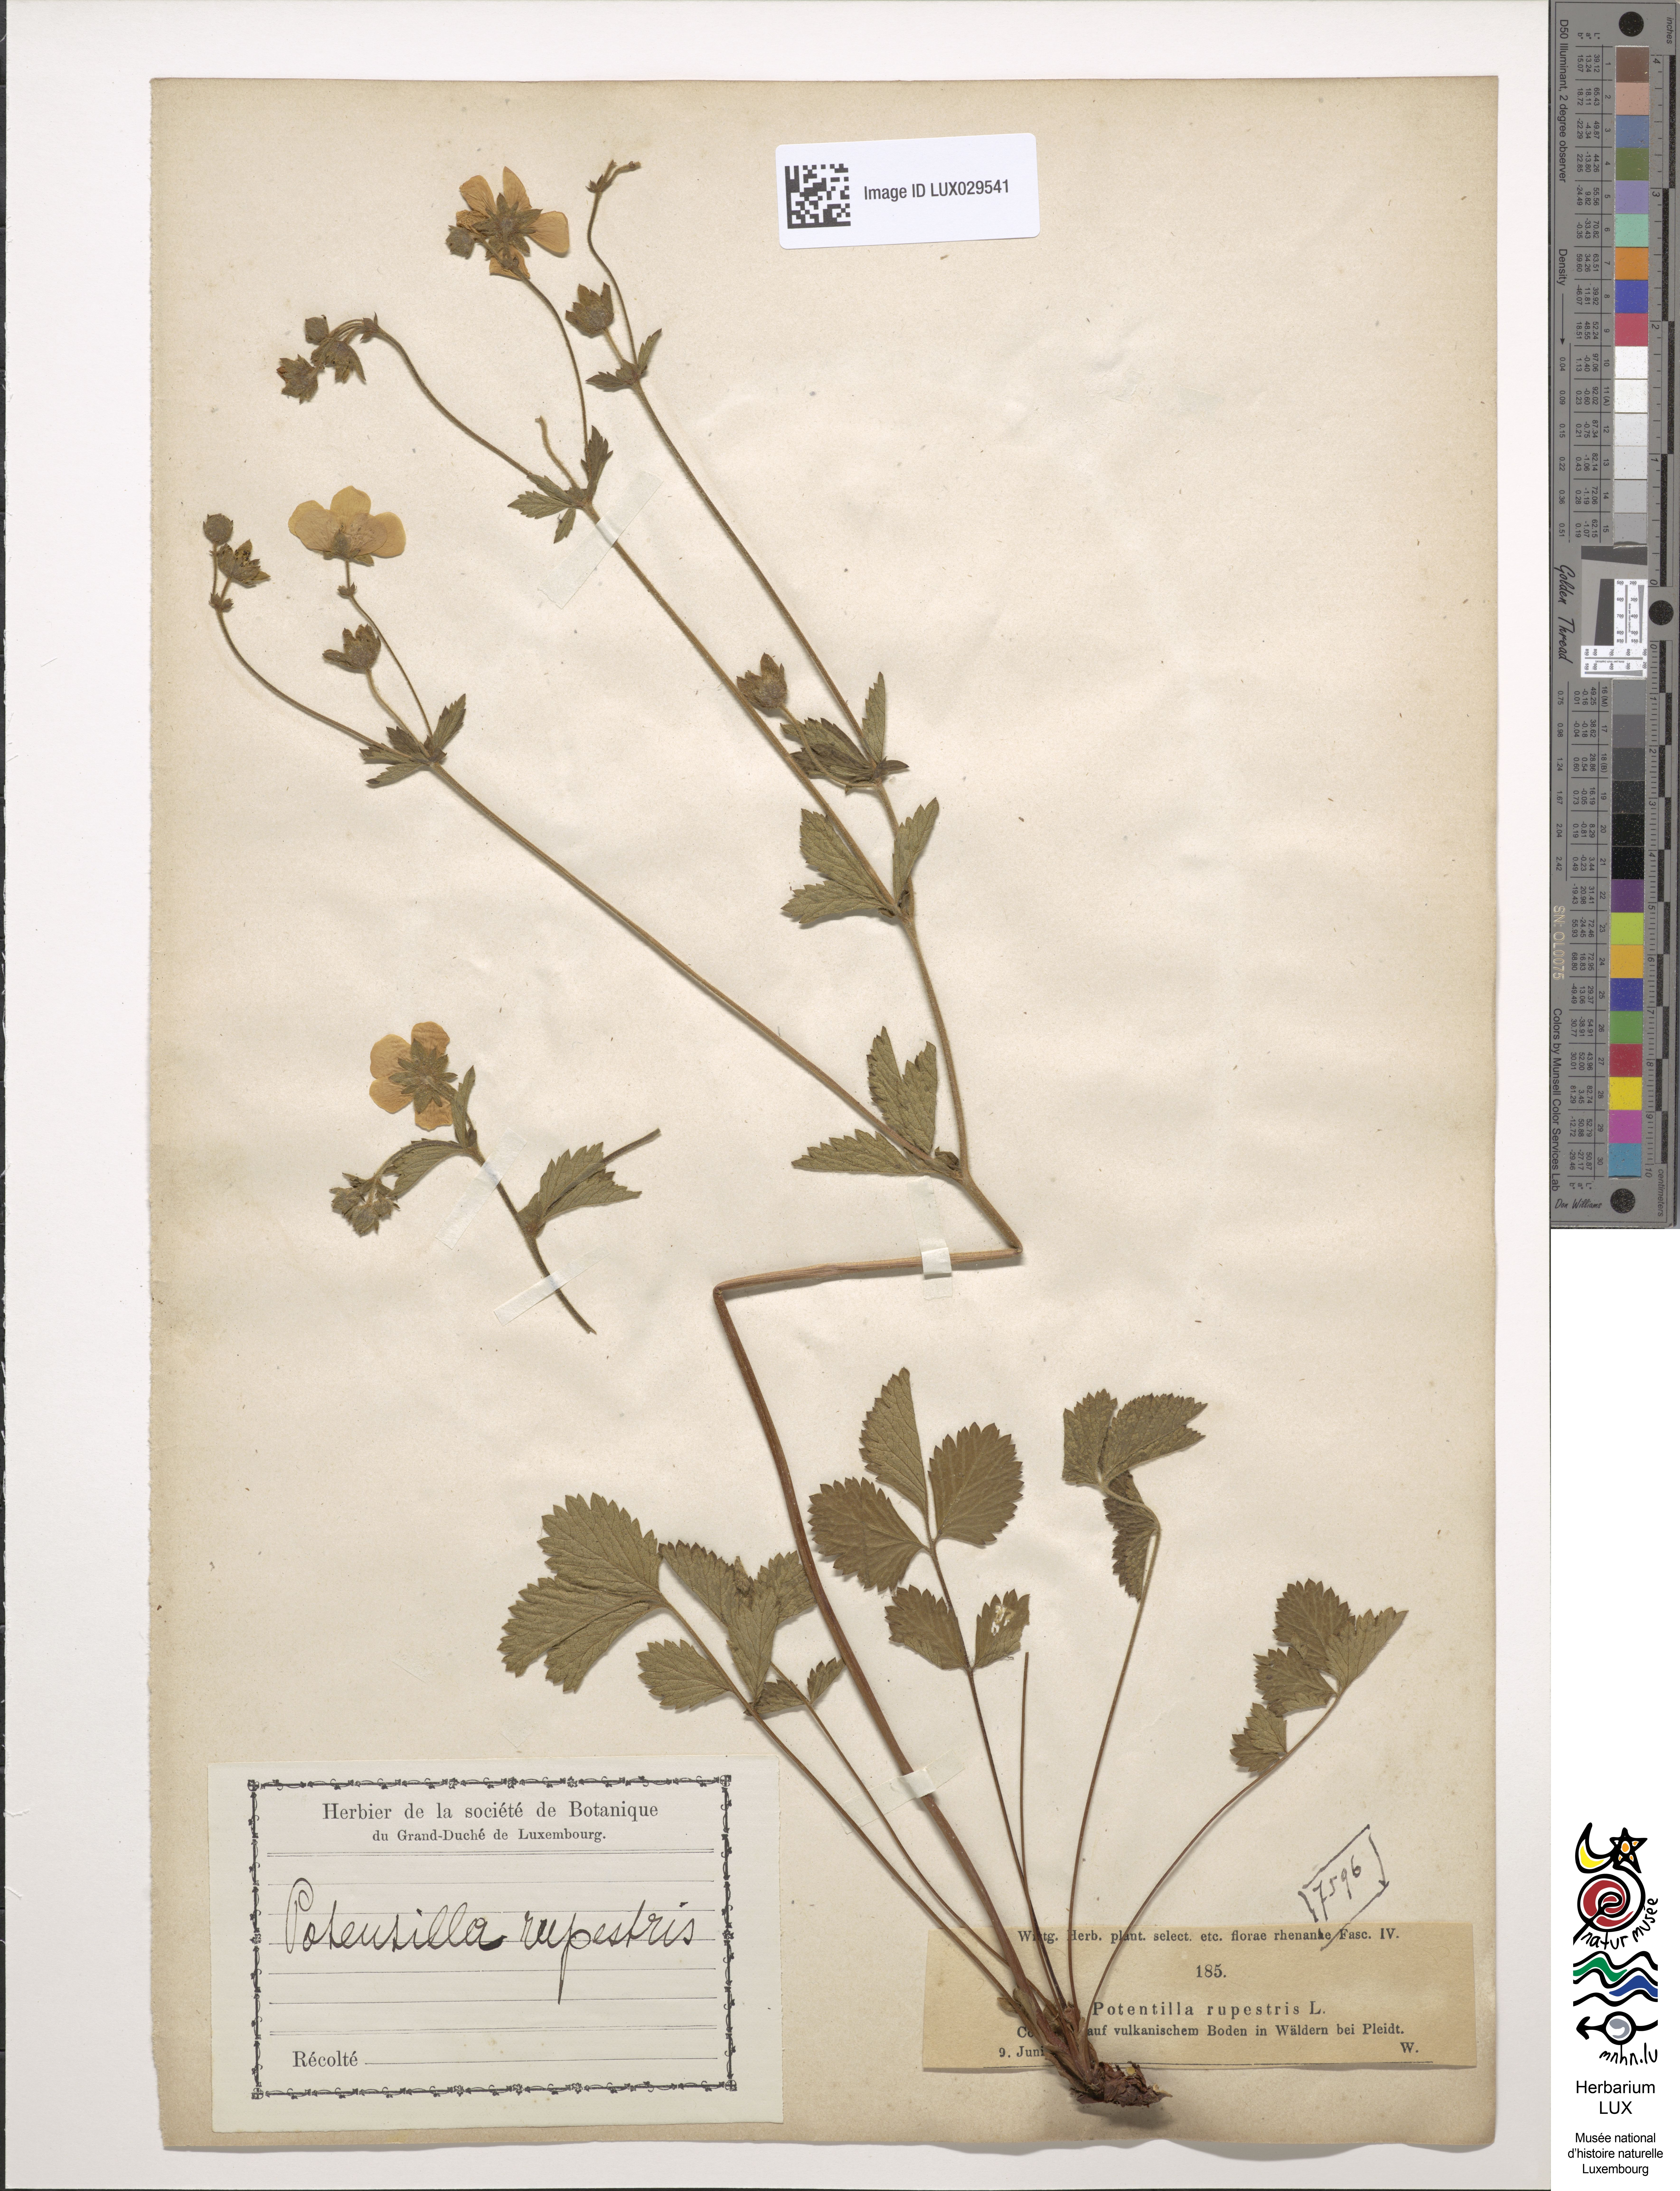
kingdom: Plantae
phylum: Tracheophyta
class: Magnoliopsida
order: Rosales
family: Rosaceae
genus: Drymocallis
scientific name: Drymocallis rupestris
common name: Rock cinquefoil
